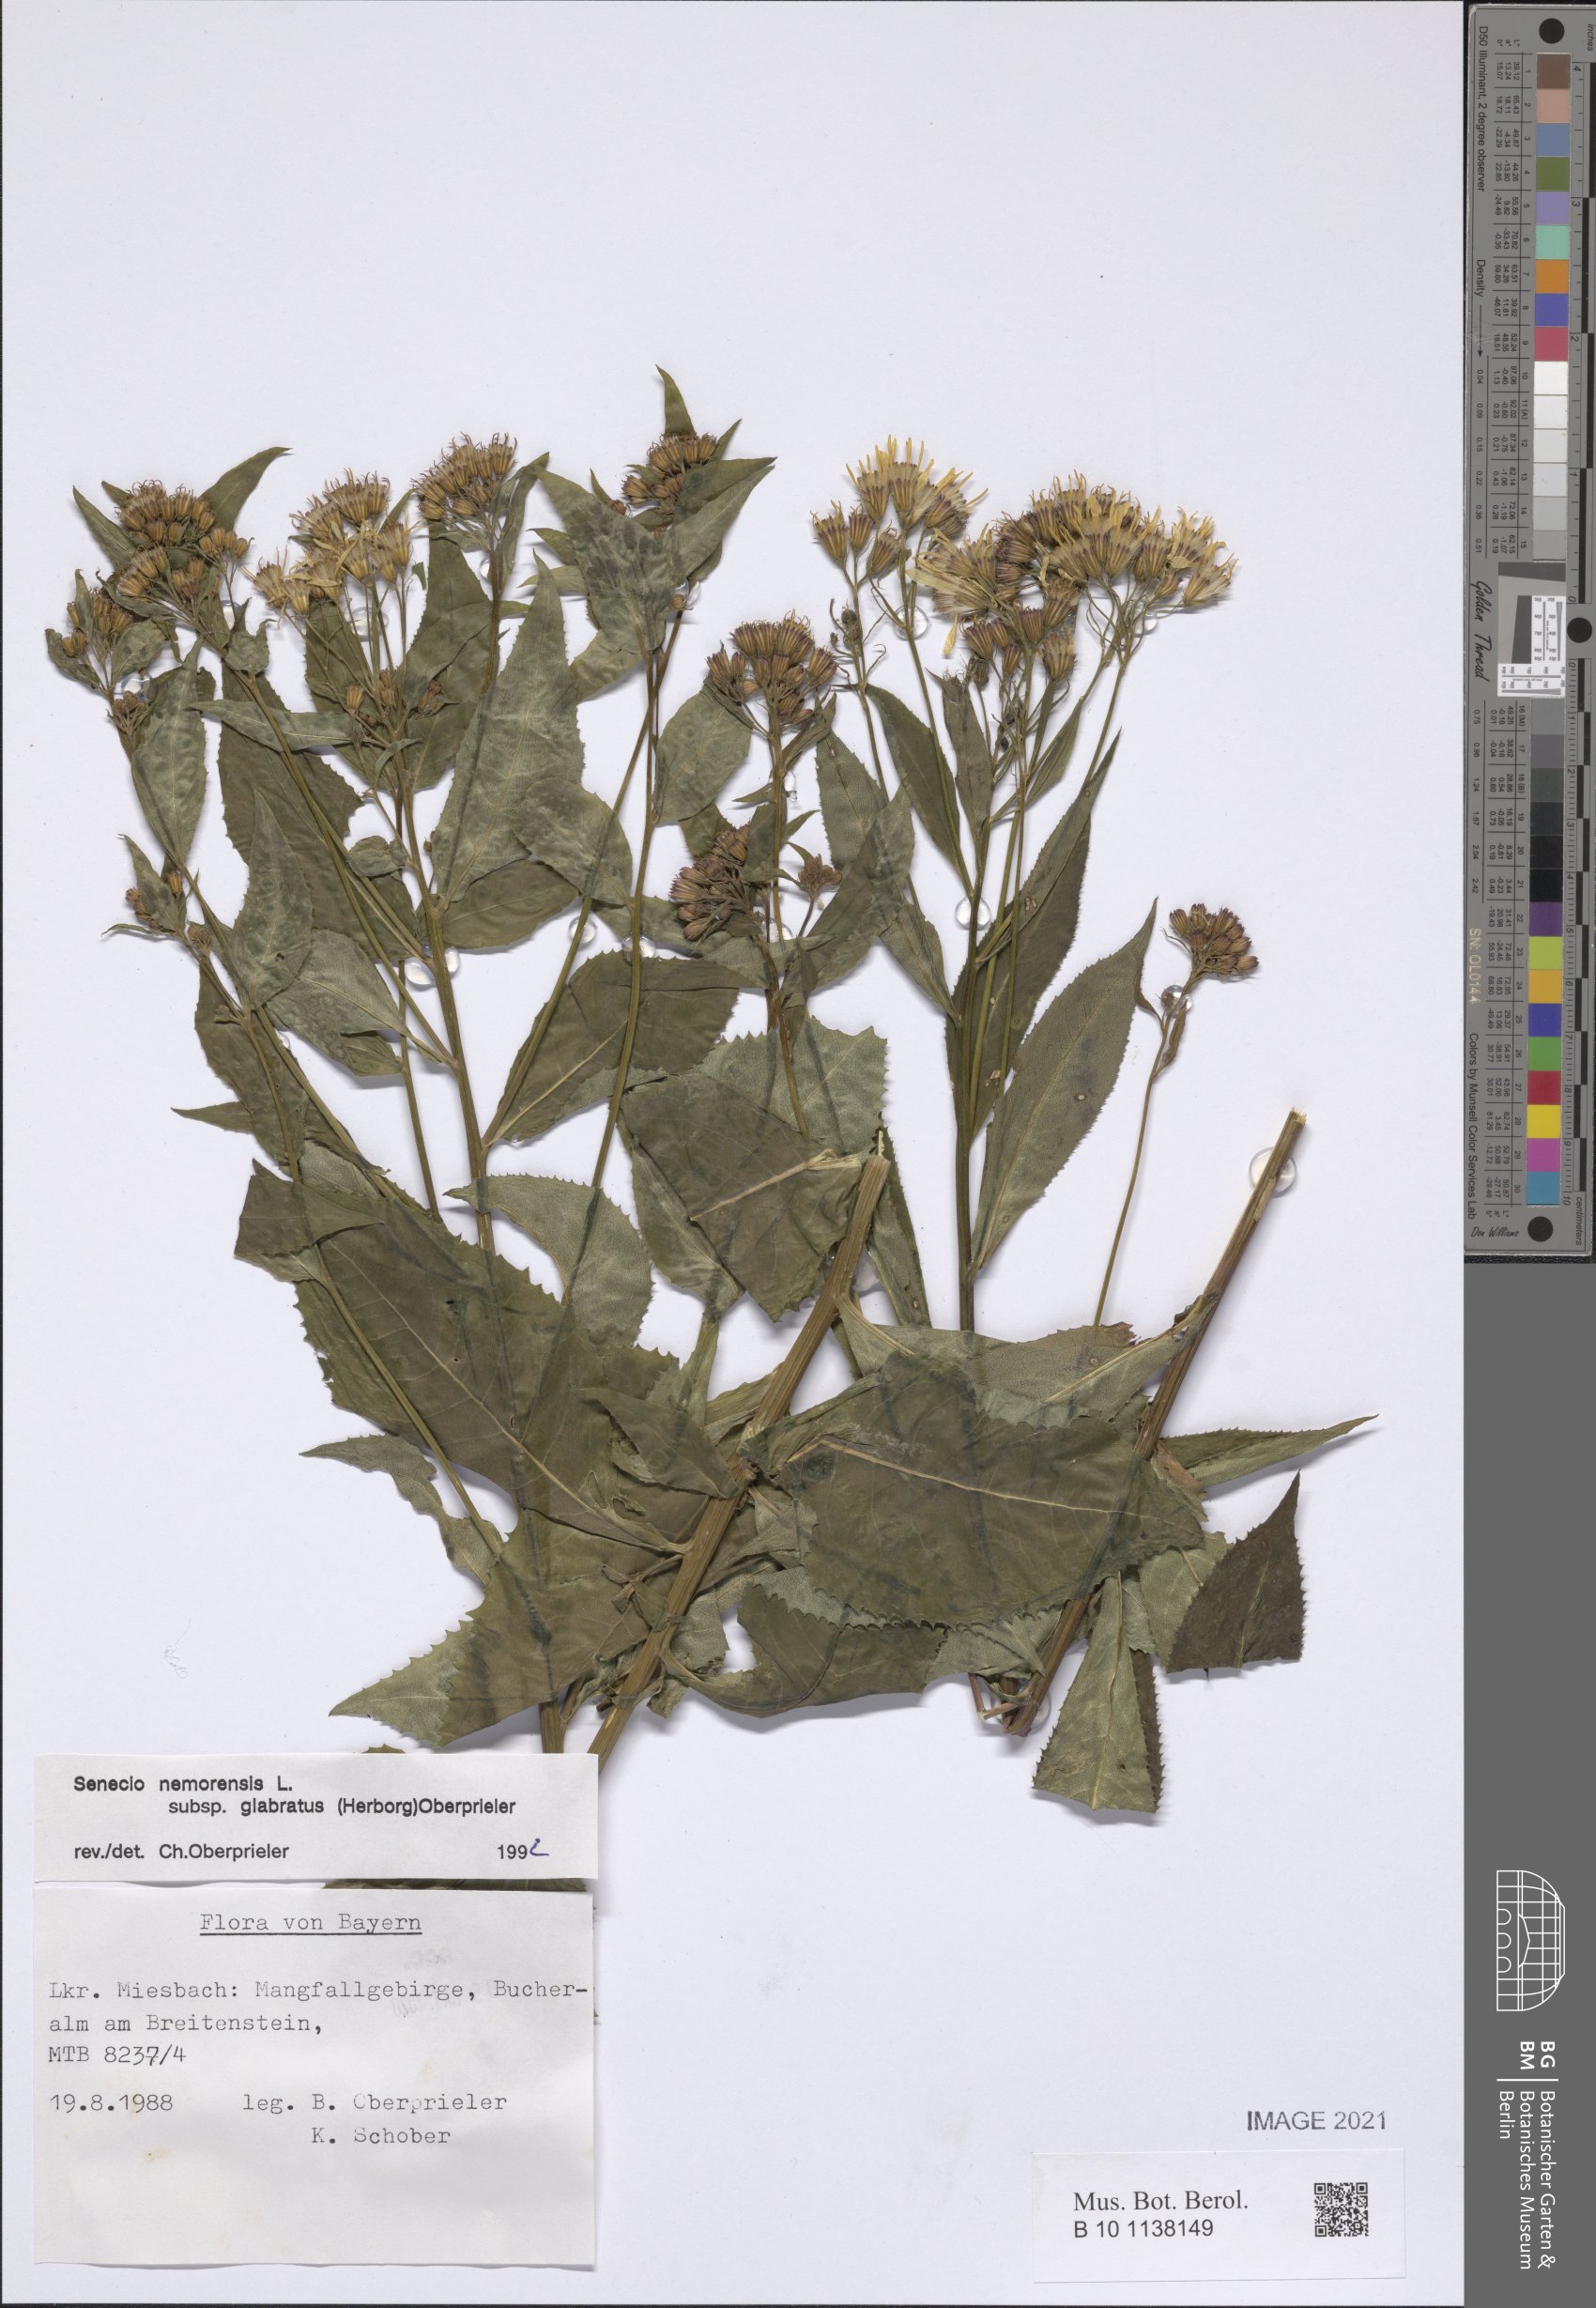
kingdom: Plantae
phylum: Tracheophyta
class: Magnoliopsida
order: Asterales
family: Asteraceae
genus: Senecio
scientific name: Senecio germanicus
